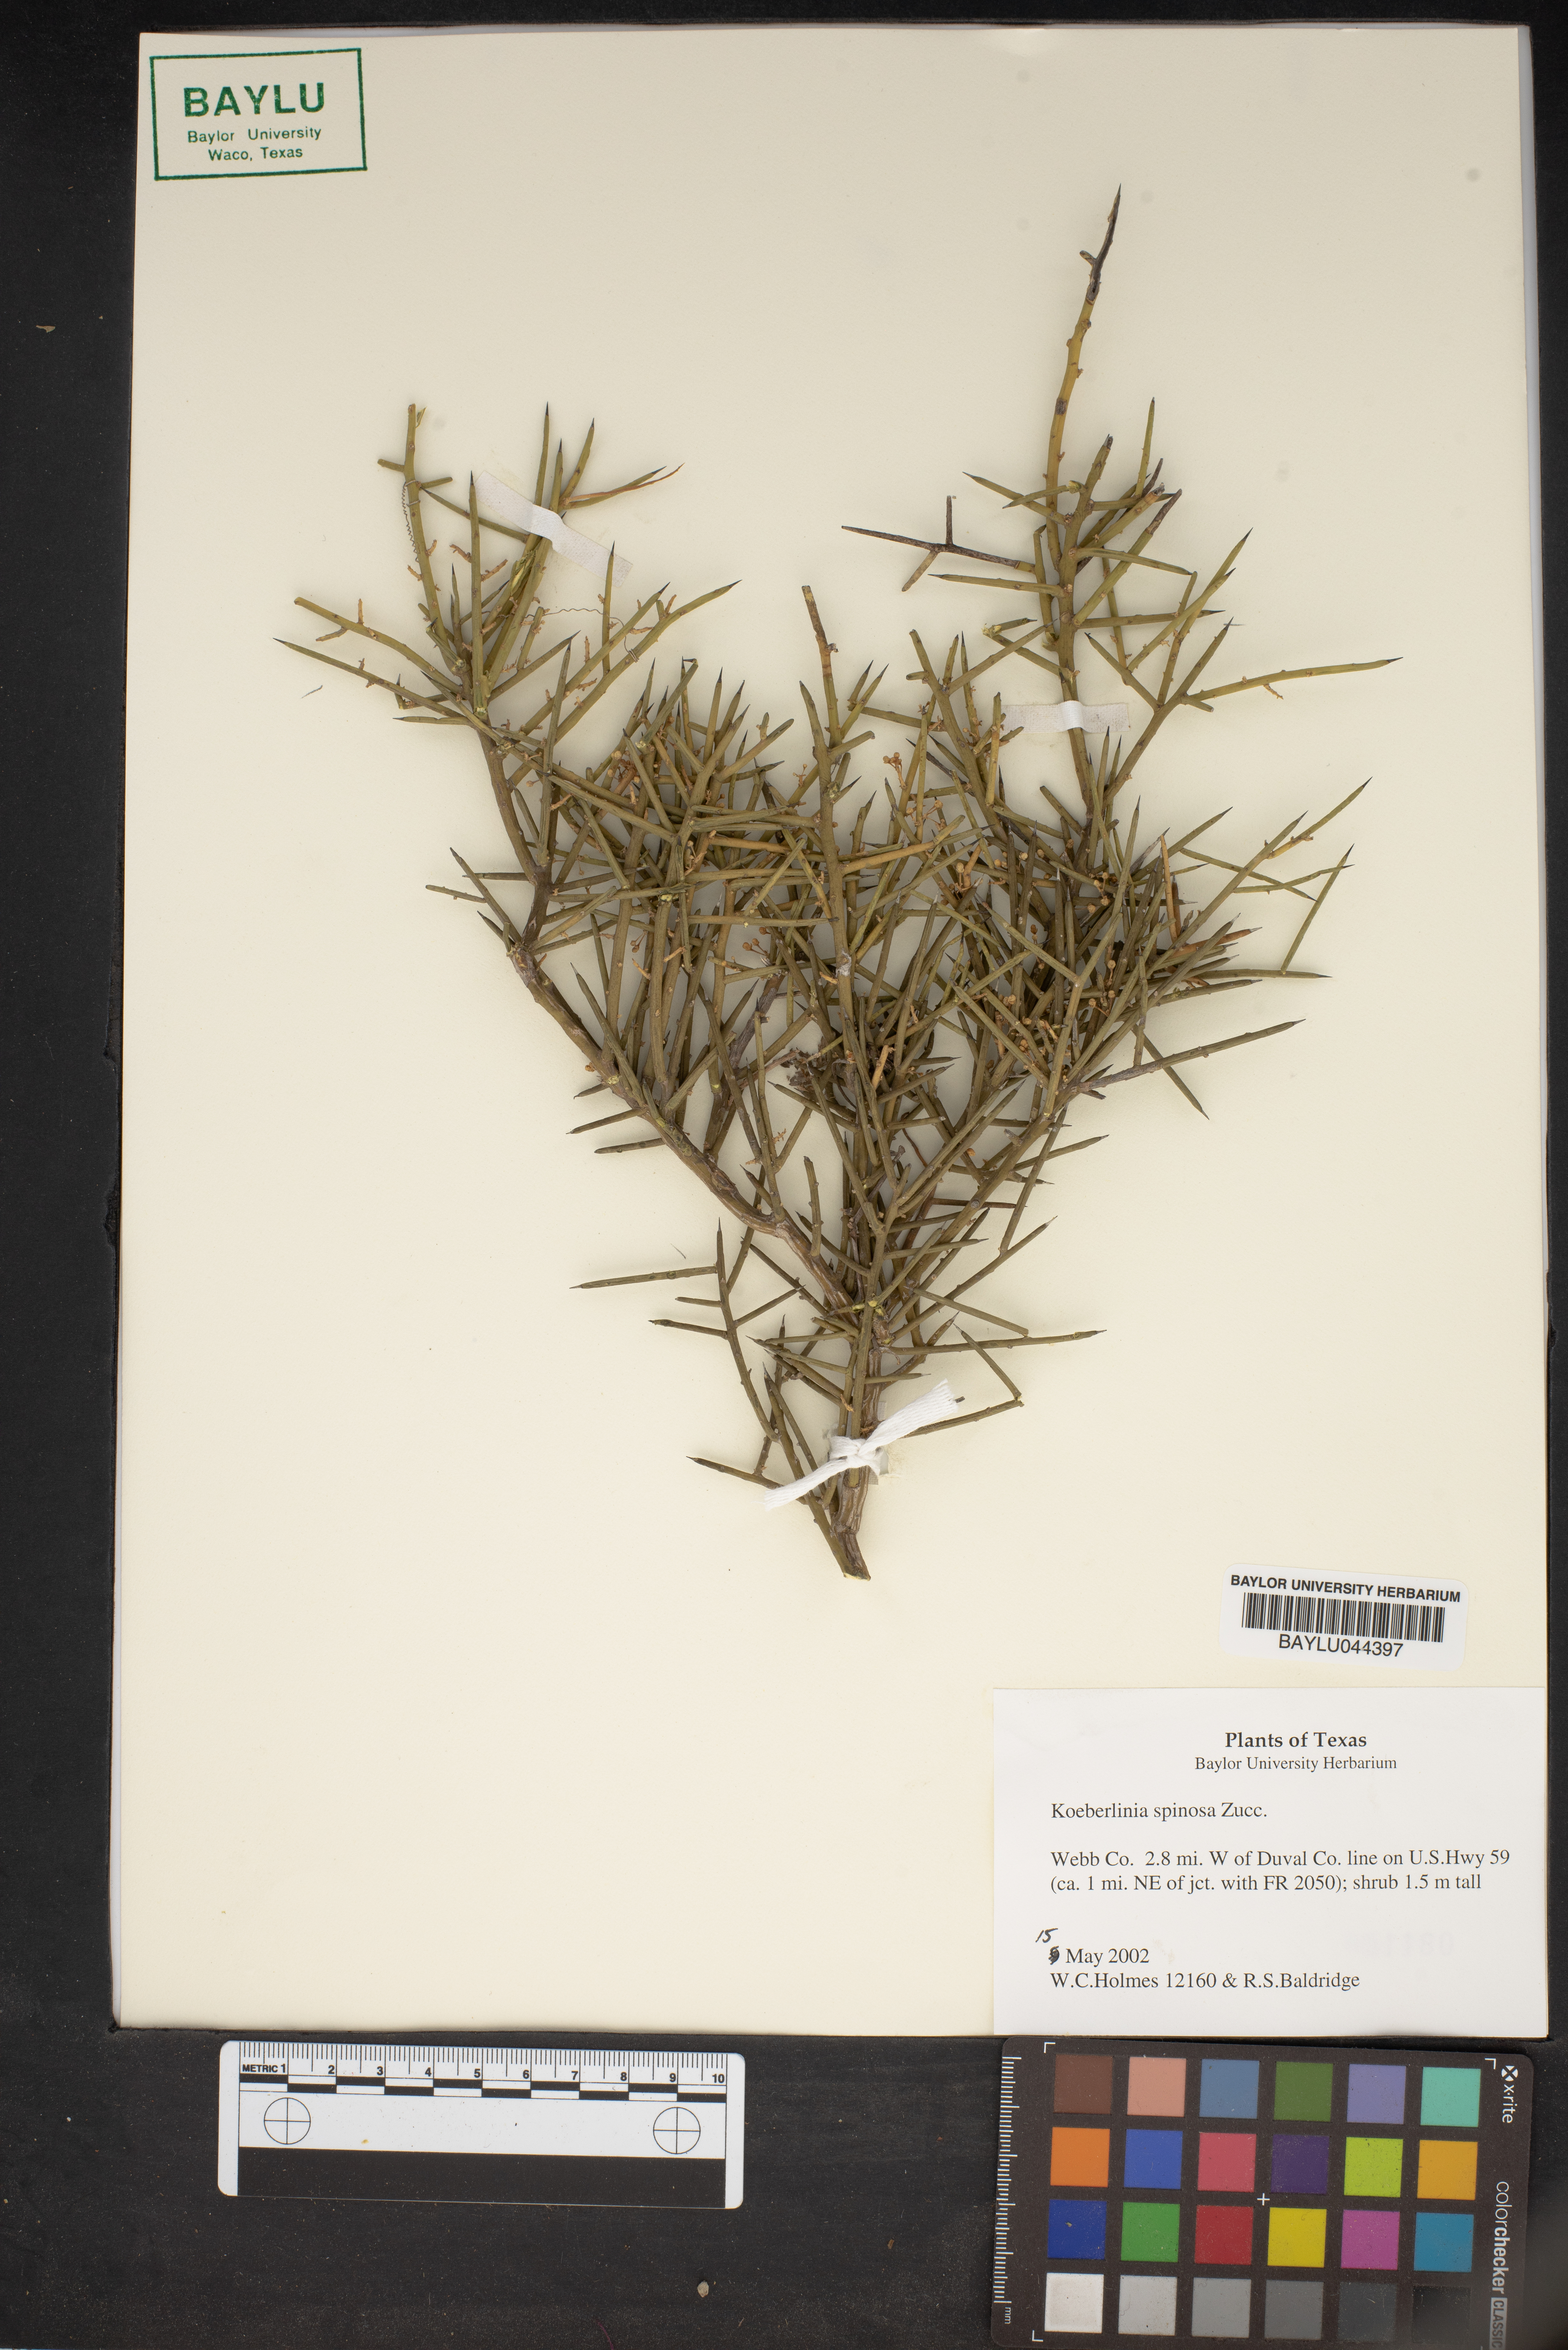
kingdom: Plantae
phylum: Tracheophyta
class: Magnoliopsida
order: Brassicales
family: Koeberliniaceae
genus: Koeberlinia
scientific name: Koeberlinia spinosa
